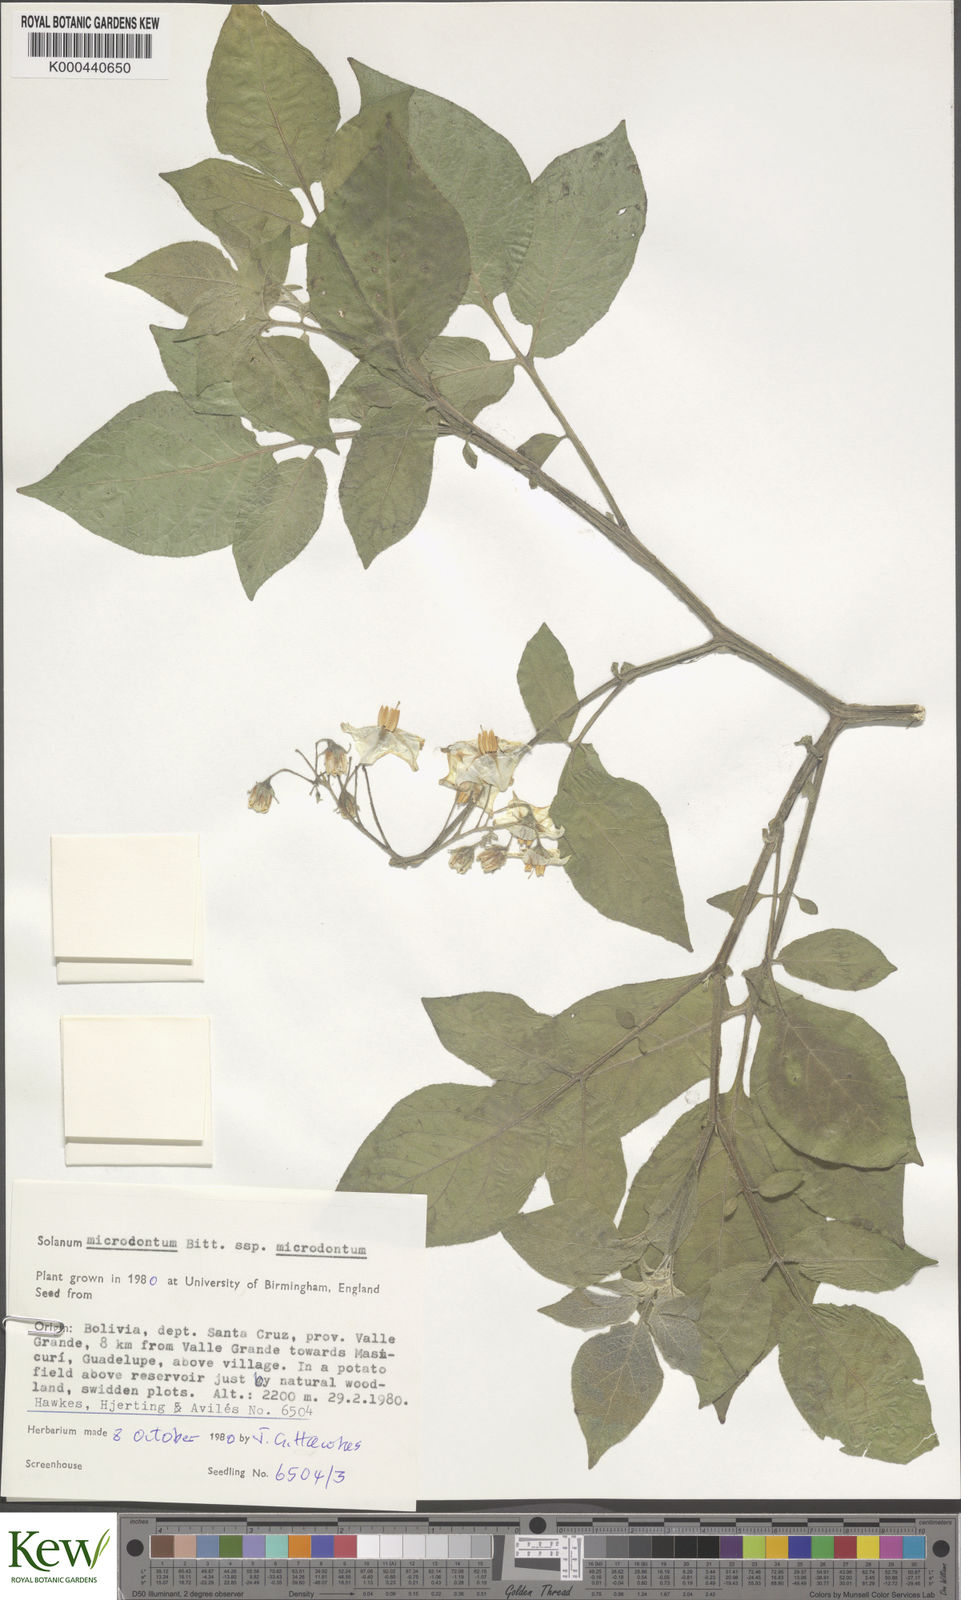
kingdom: Plantae
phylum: Tracheophyta
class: Magnoliopsida
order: Solanales
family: Solanaceae
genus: Solanum
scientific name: Solanum microdontum
